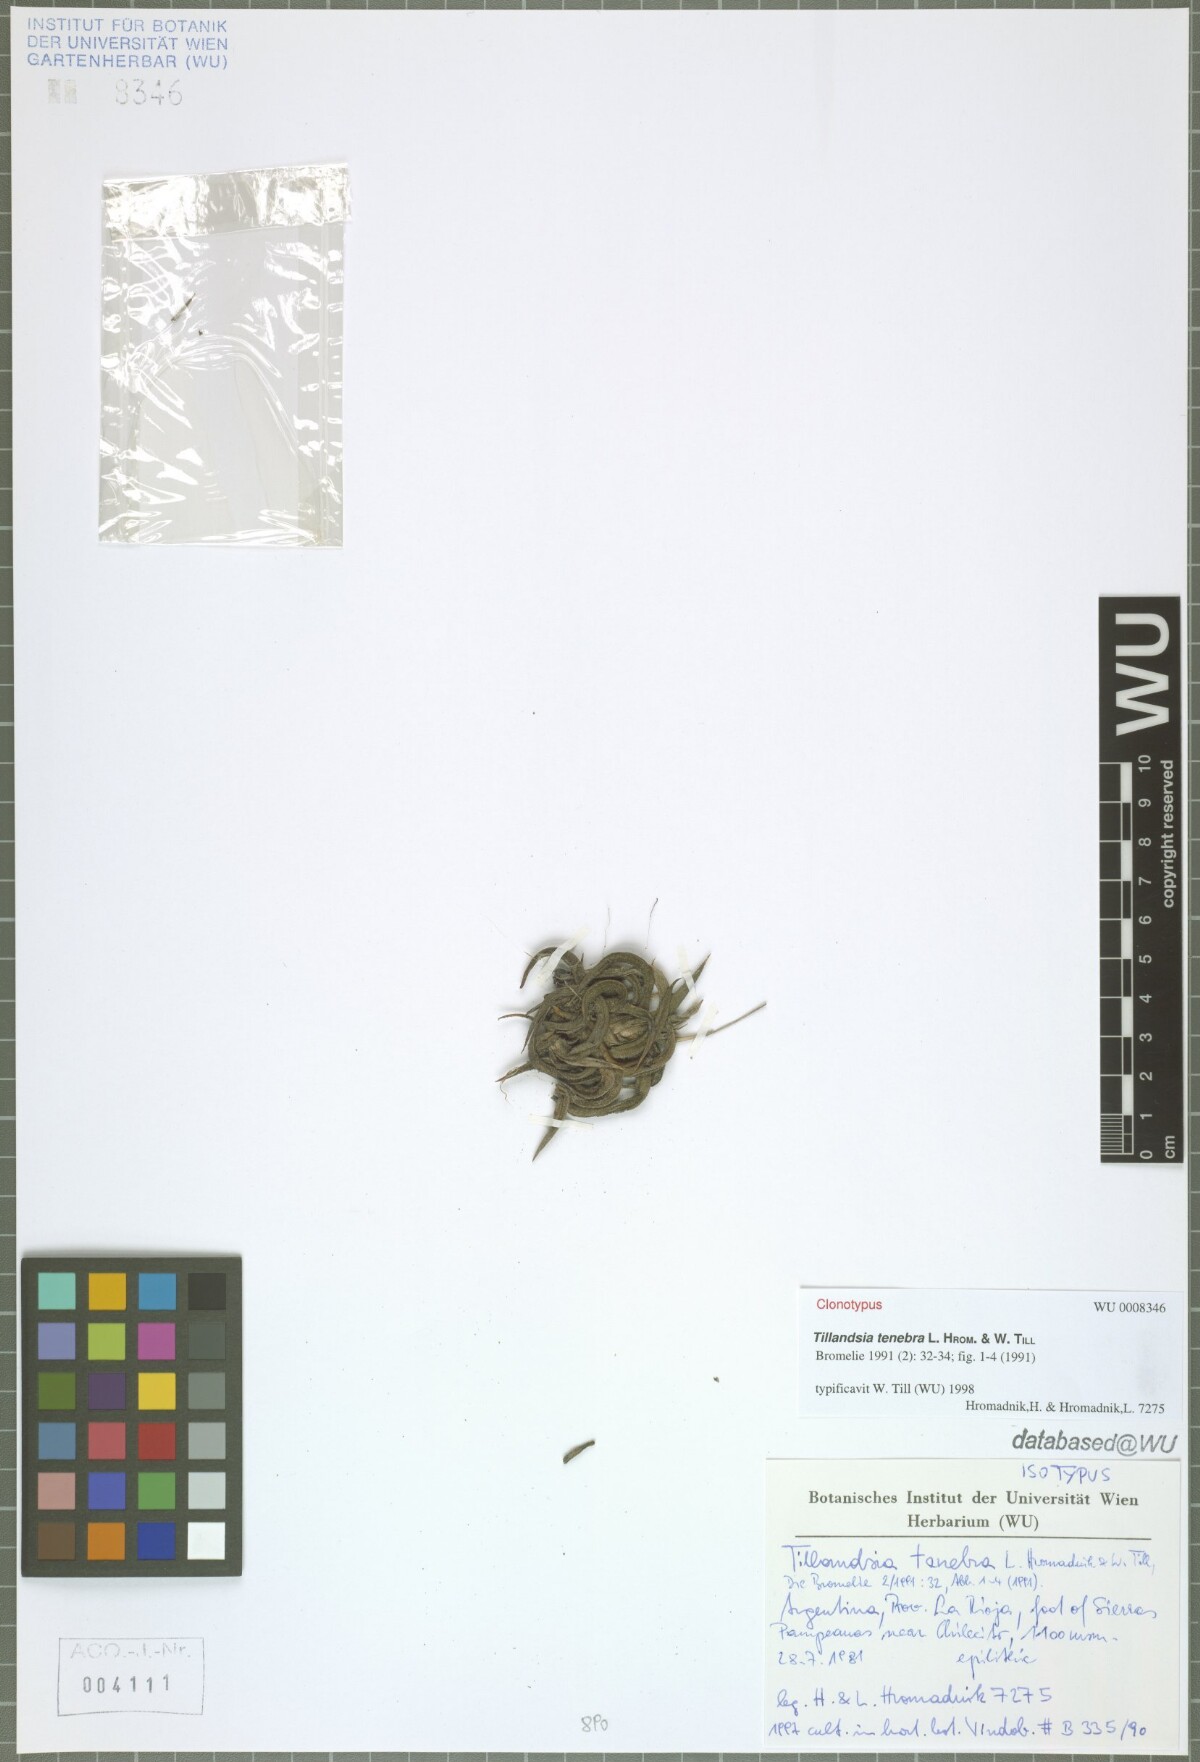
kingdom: Plantae
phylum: Tracheophyta
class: Liliopsida
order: Poales
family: Bromeliaceae
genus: Tillandsia
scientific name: Tillandsia tenebra
